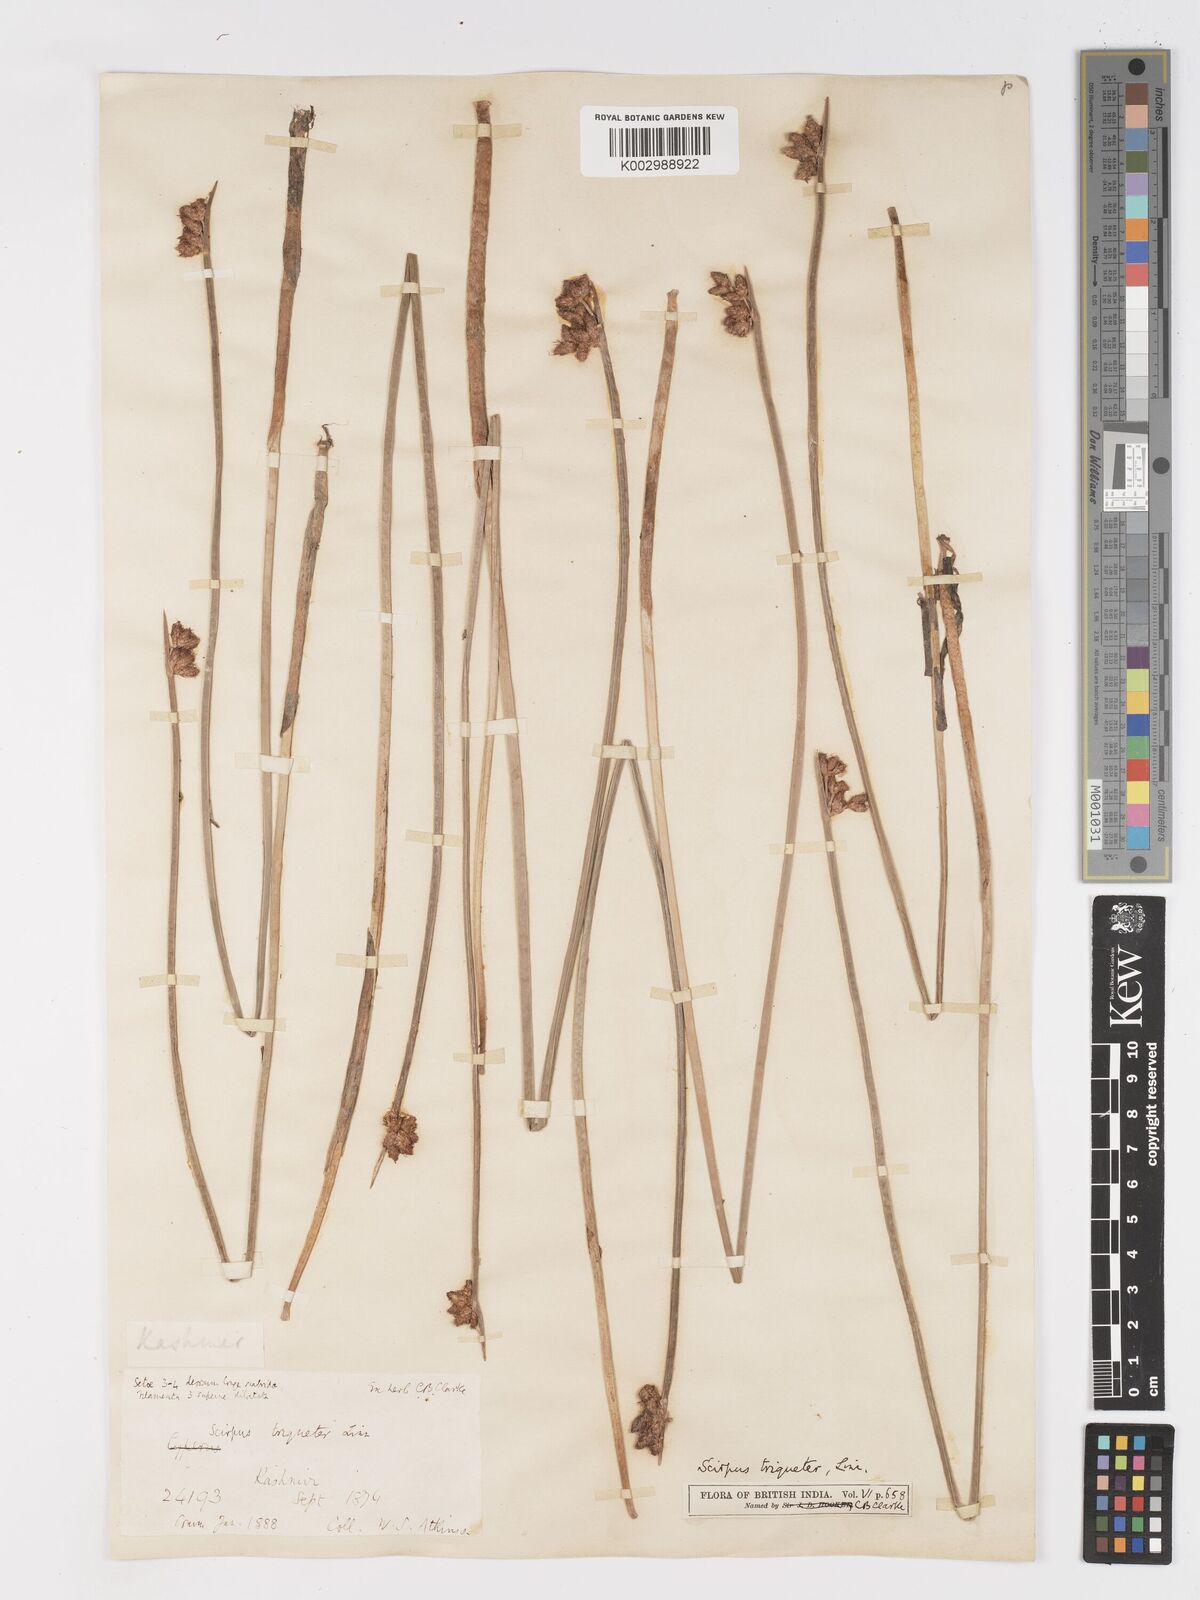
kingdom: Plantae
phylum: Tracheophyta
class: Liliopsida
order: Poales
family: Cyperaceae
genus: Schoenoplectus
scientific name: Schoenoplectus triqueter
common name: Triangular club-rush
